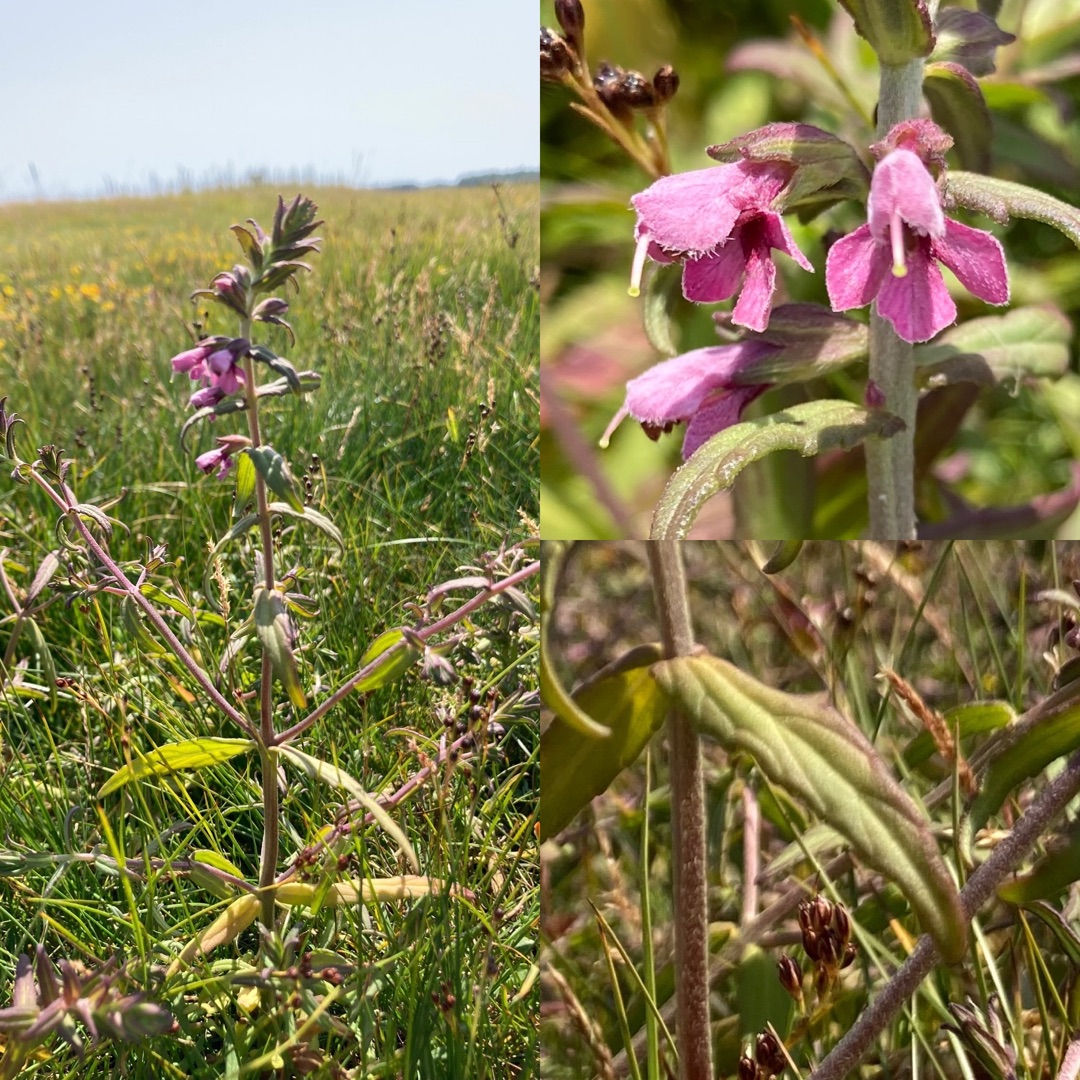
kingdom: Plantae
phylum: Tracheophyta
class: Magnoliopsida
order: Lamiales
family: Orobanchaceae
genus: Odontites
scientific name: Odontites vulgaris
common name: Høst-rødtop
